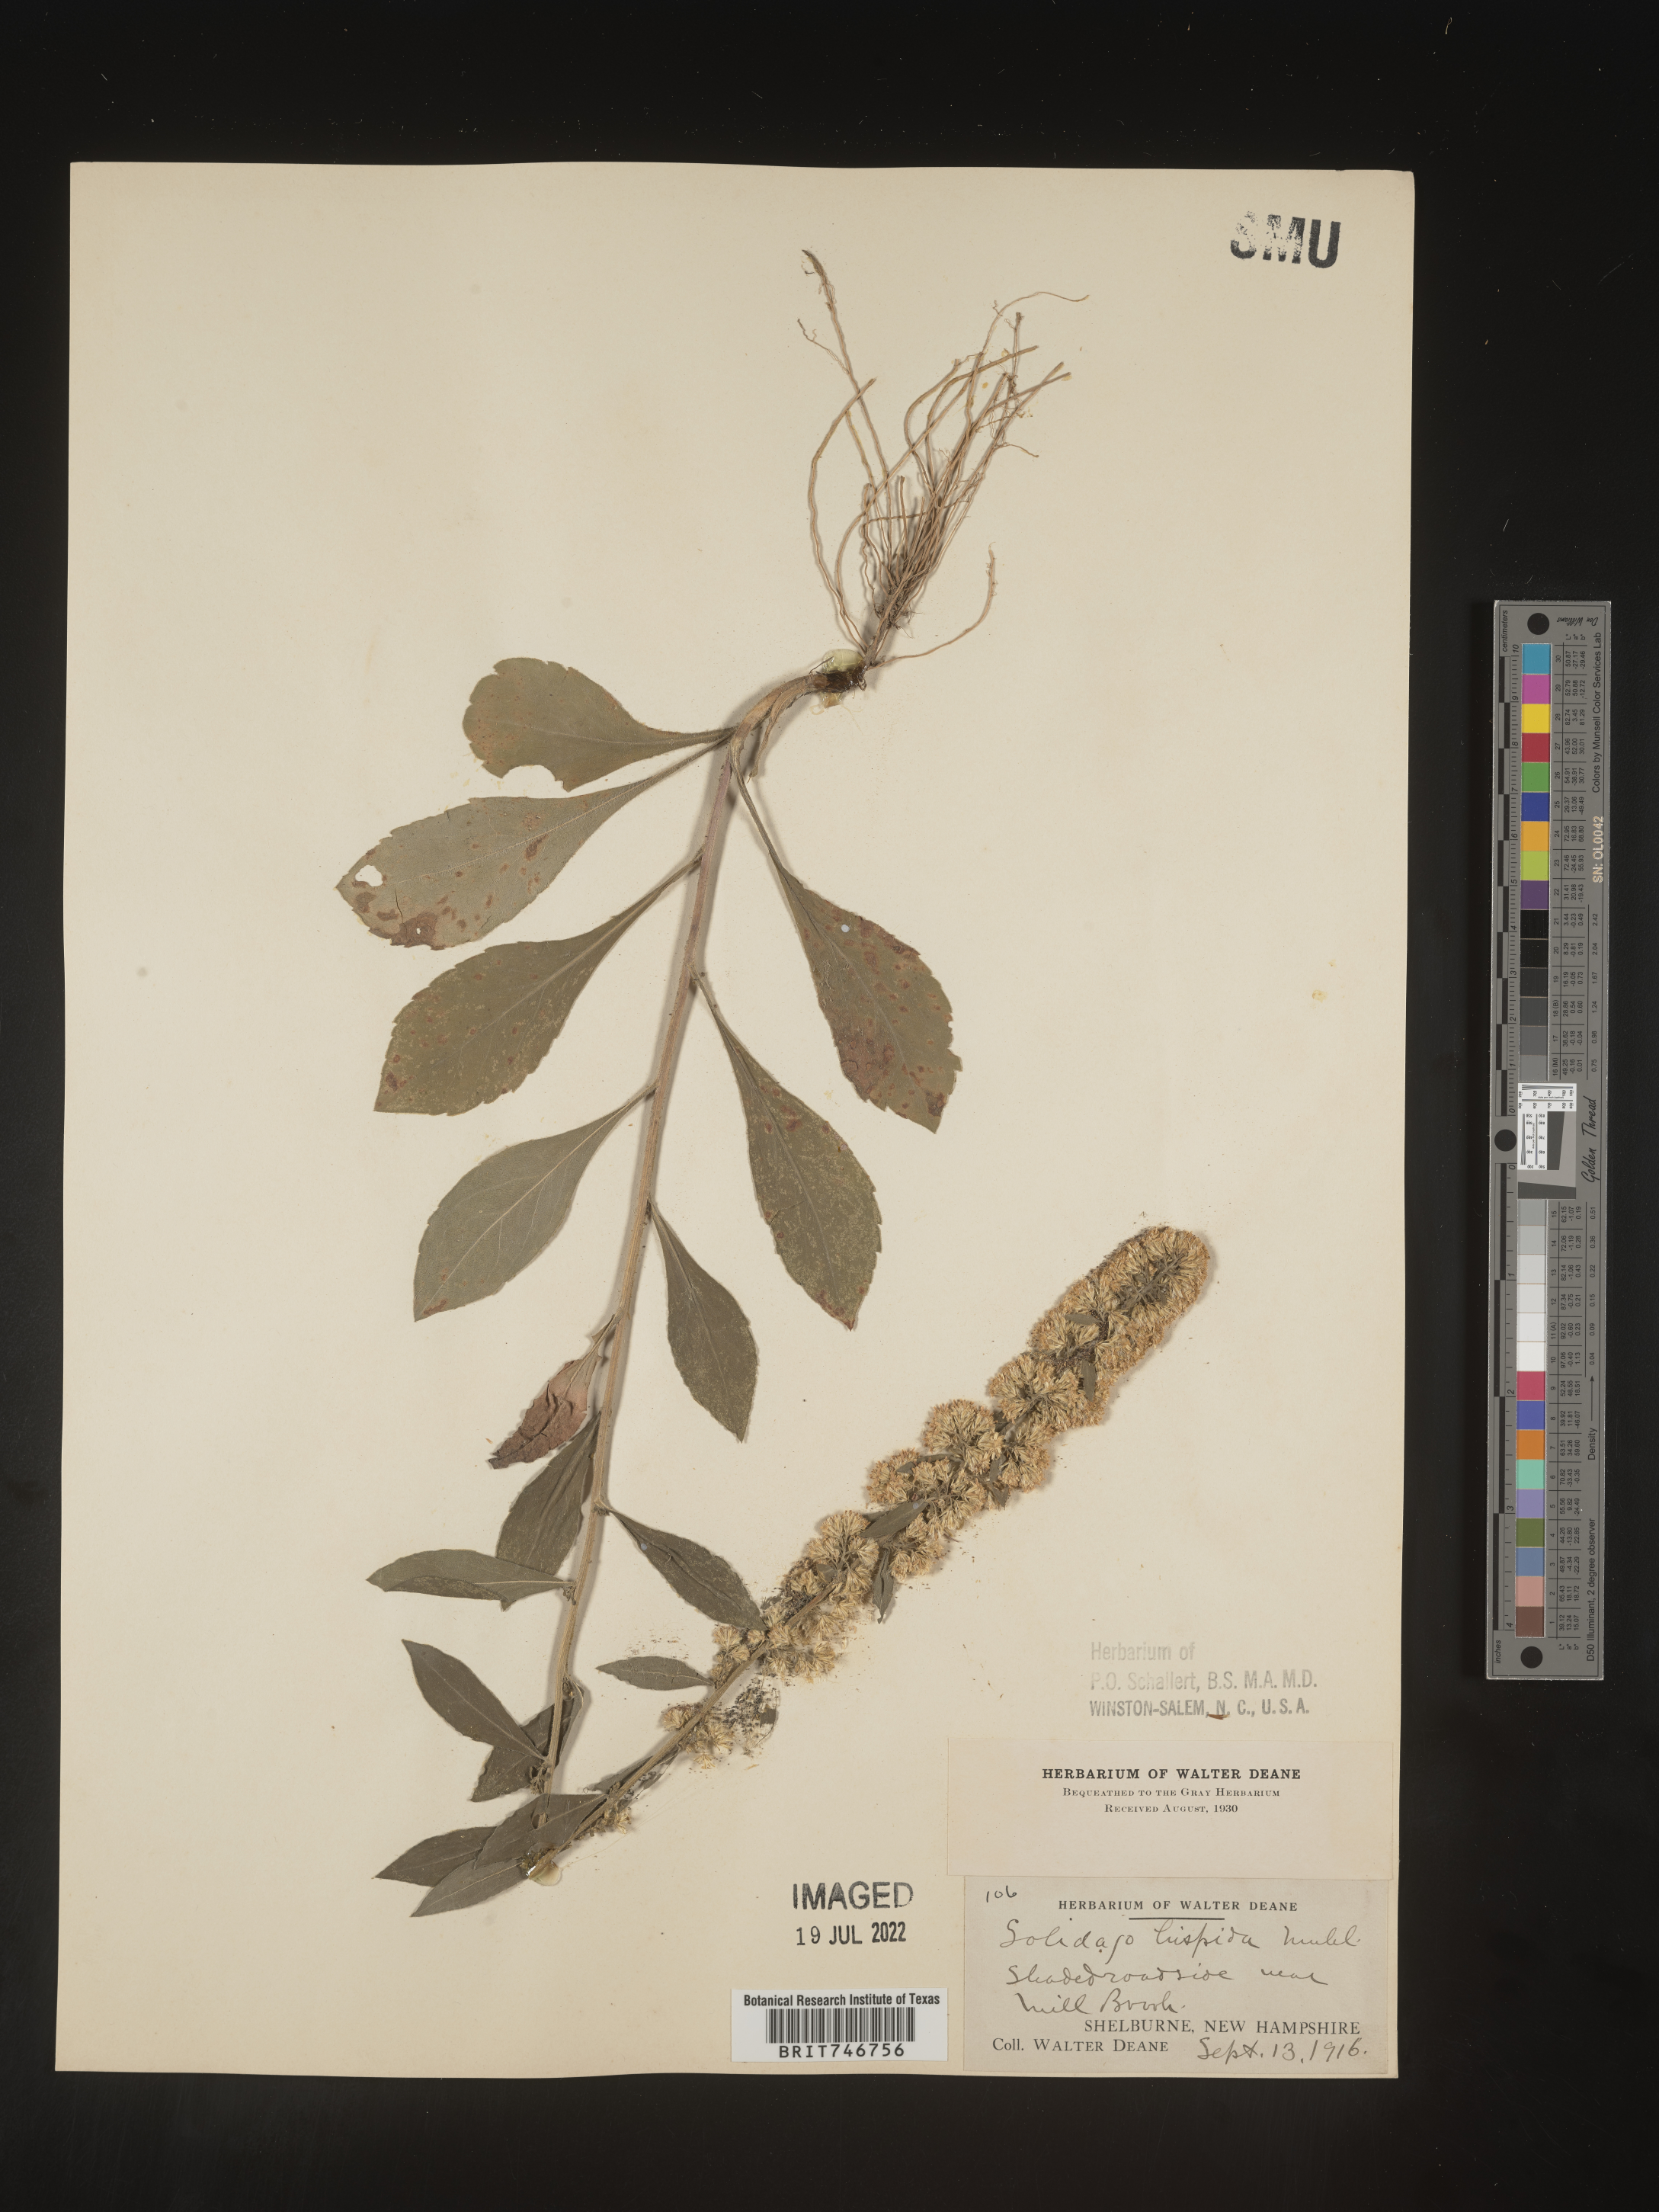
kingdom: Plantae
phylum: Tracheophyta
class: Magnoliopsida
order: Asterales
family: Asteraceae
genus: Solidago
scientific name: Solidago hispida
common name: Hairy goldenrod
